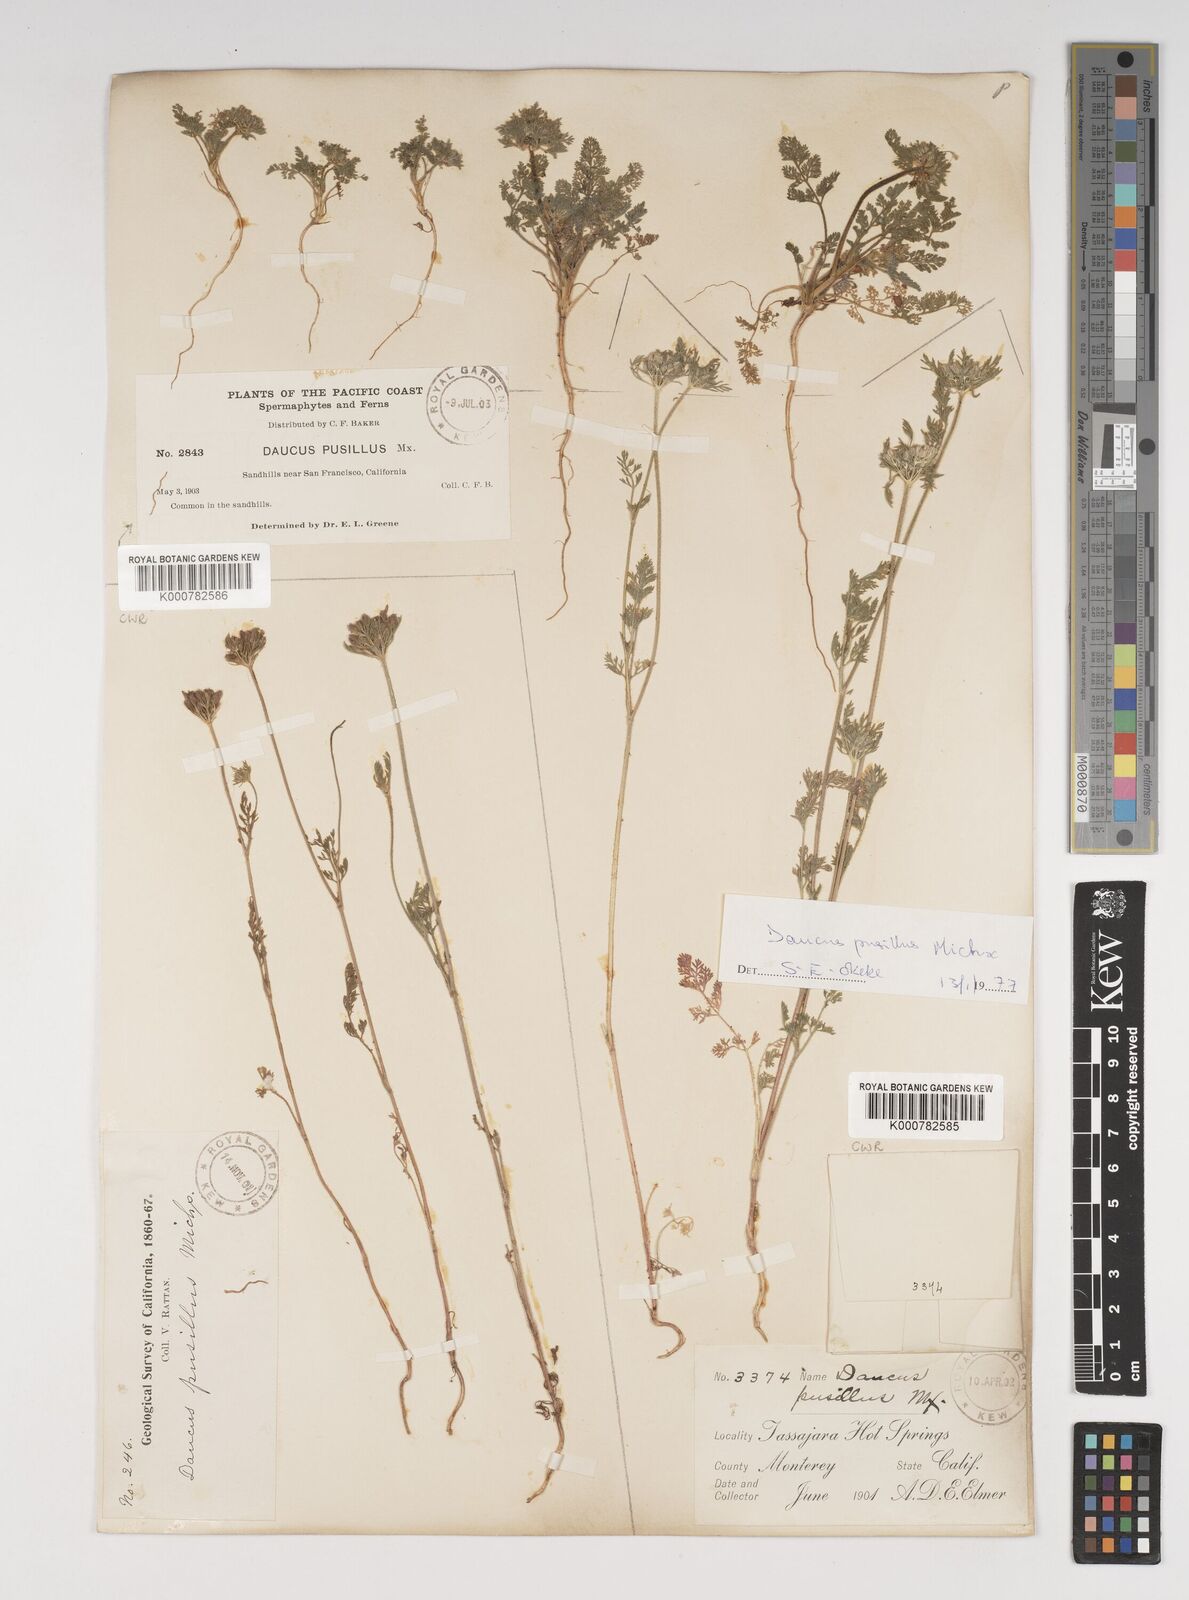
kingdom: Plantae
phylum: Tracheophyta
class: Magnoliopsida
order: Apiales
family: Apiaceae
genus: Daucus
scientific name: Daucus pusillus
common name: Southwest wild carrot
